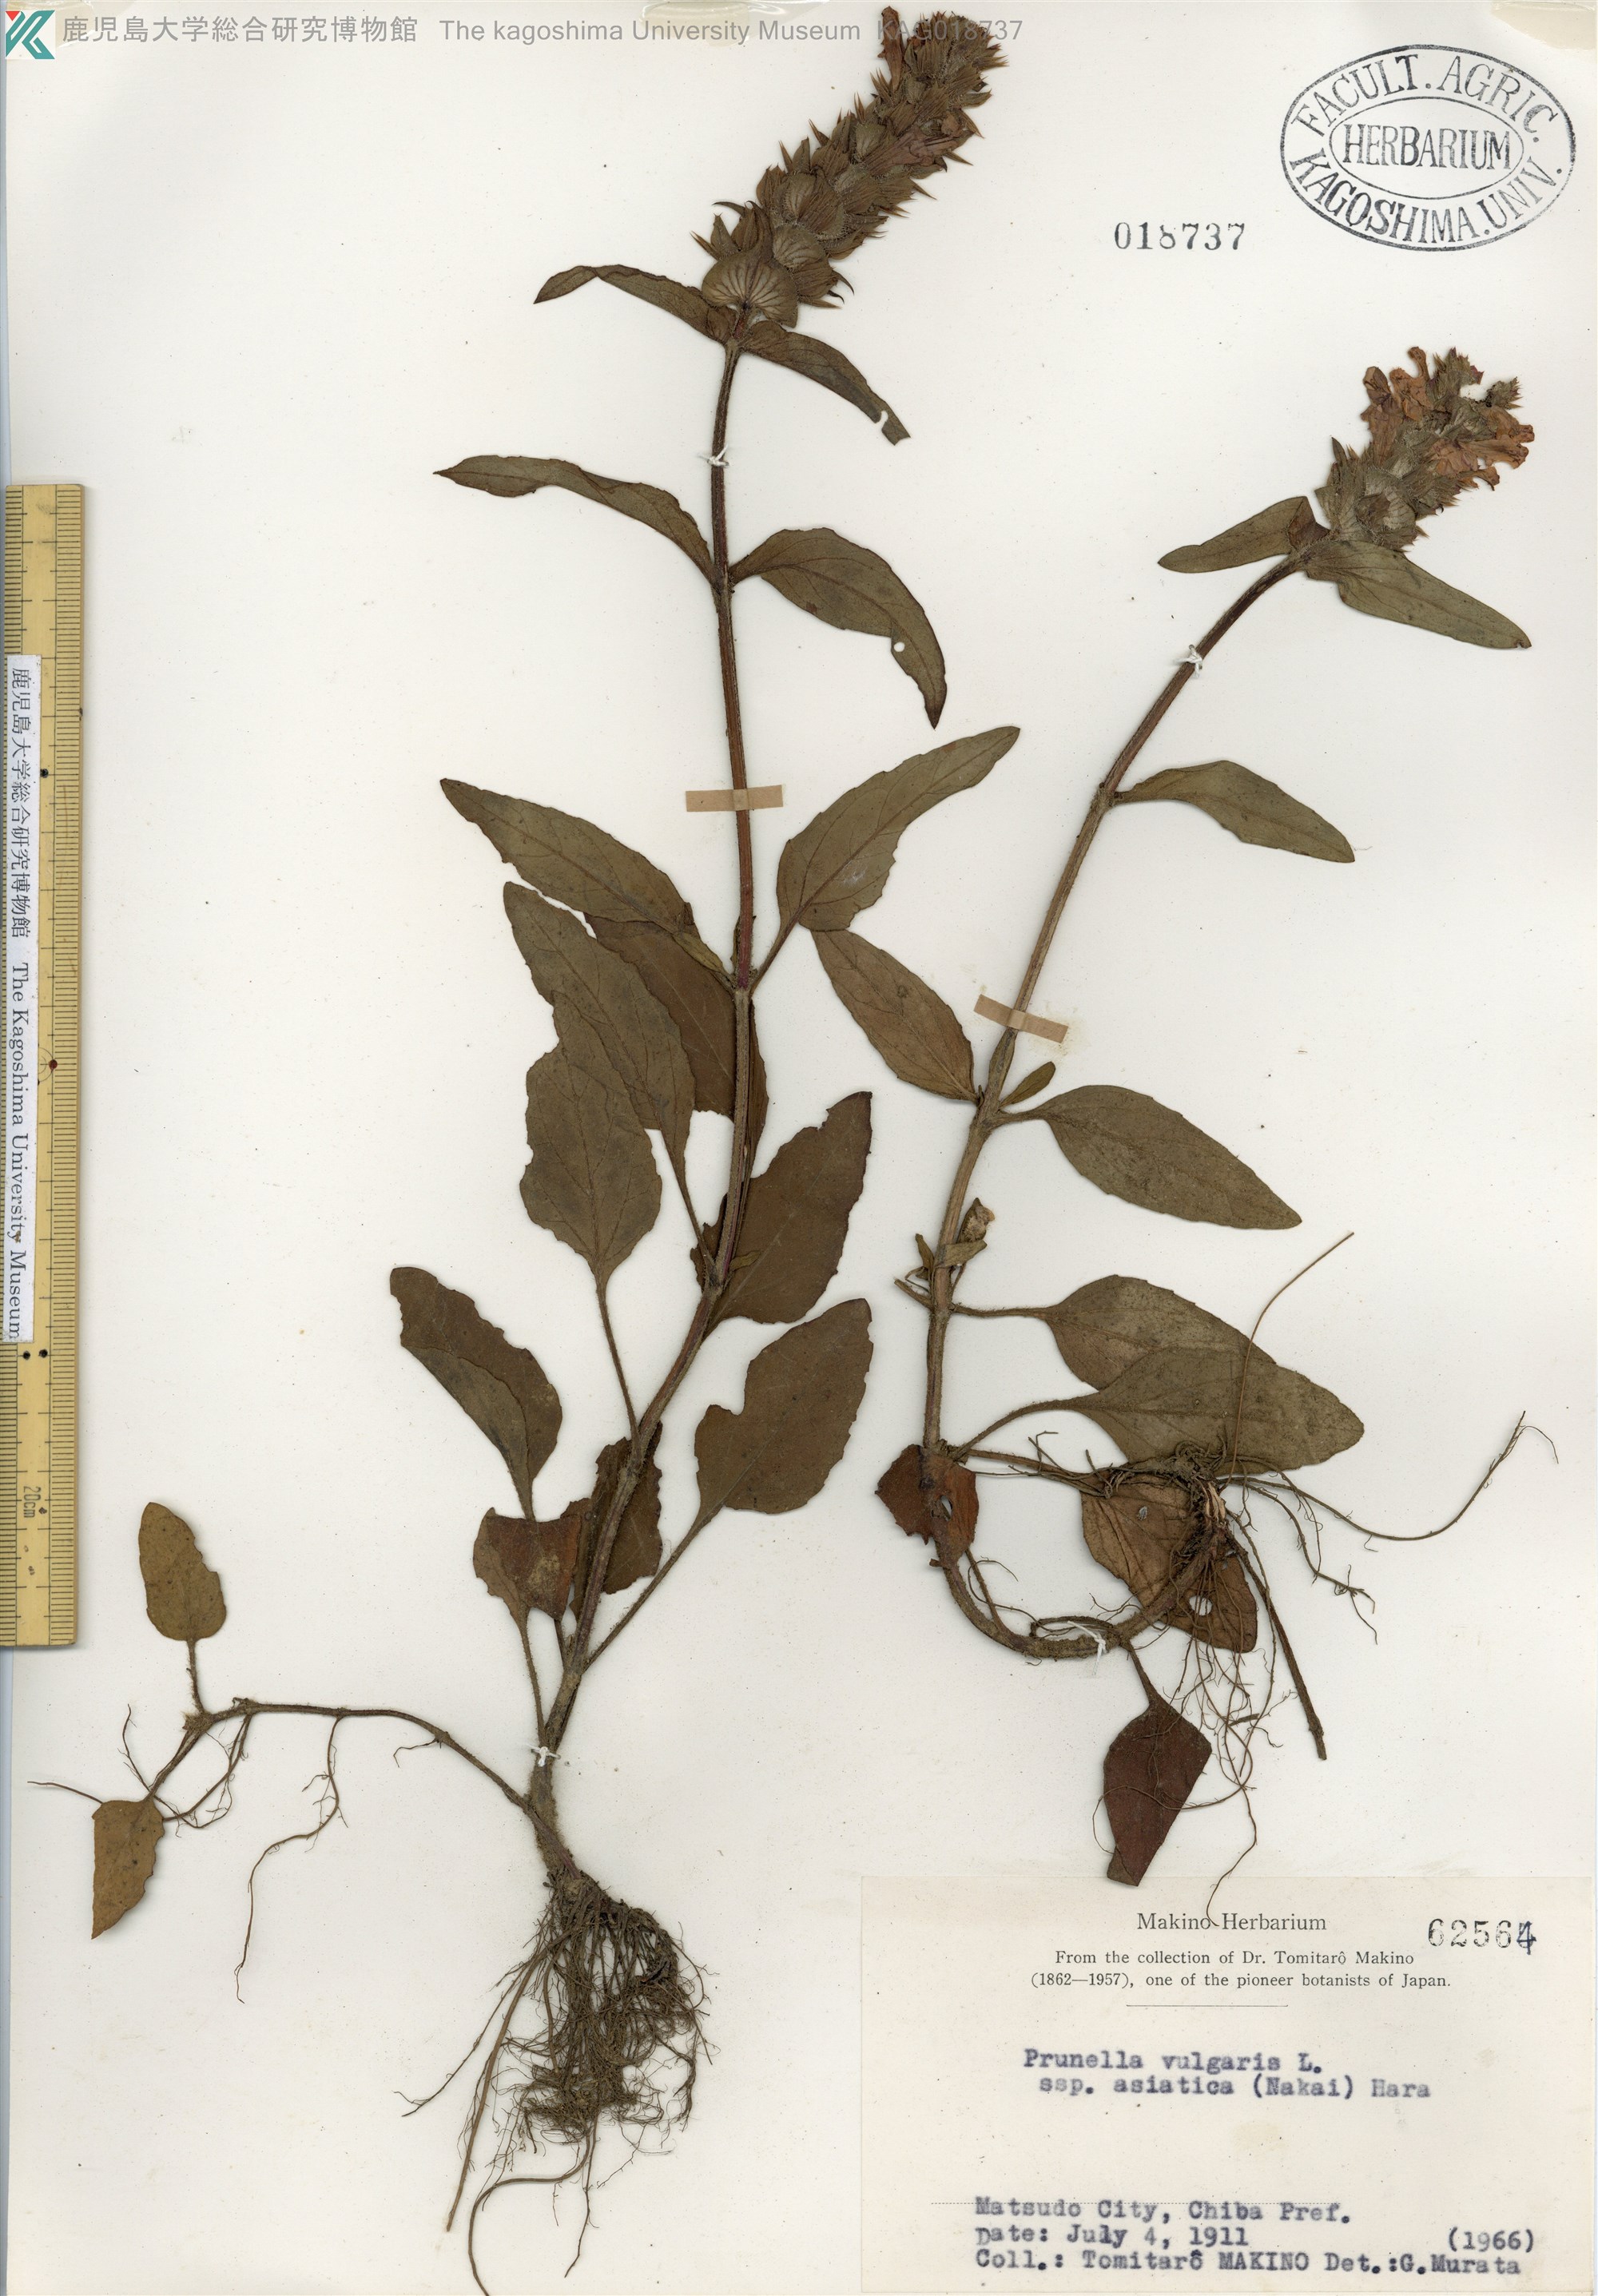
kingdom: Plantae
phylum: Tracheophyta
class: Magnoliopsida
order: Lamiales
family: Lamiaceae
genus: Prunella
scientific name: Prunella vulgaris
